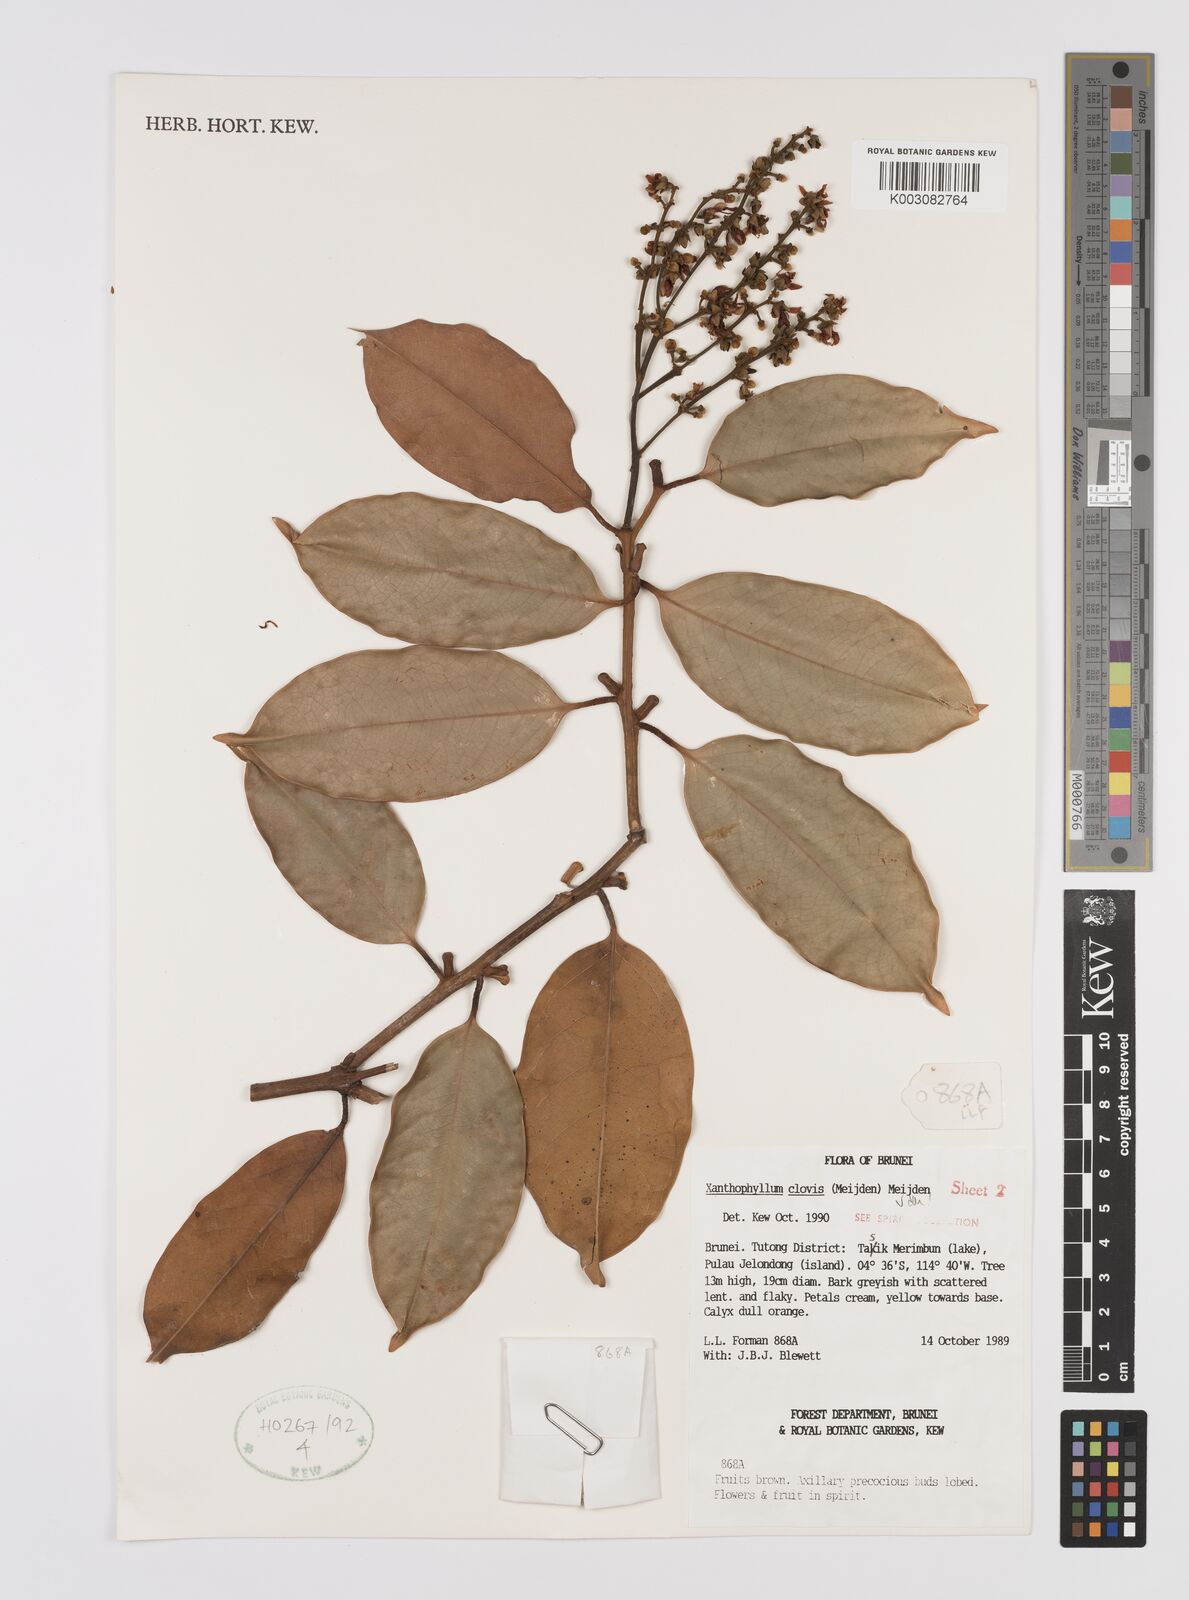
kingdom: Plantae
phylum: Tracheophyta
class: Magnoliopsida
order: Fabales
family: Polygalaceae
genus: Xanthophyllum
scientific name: Xanthophyllum clovis
